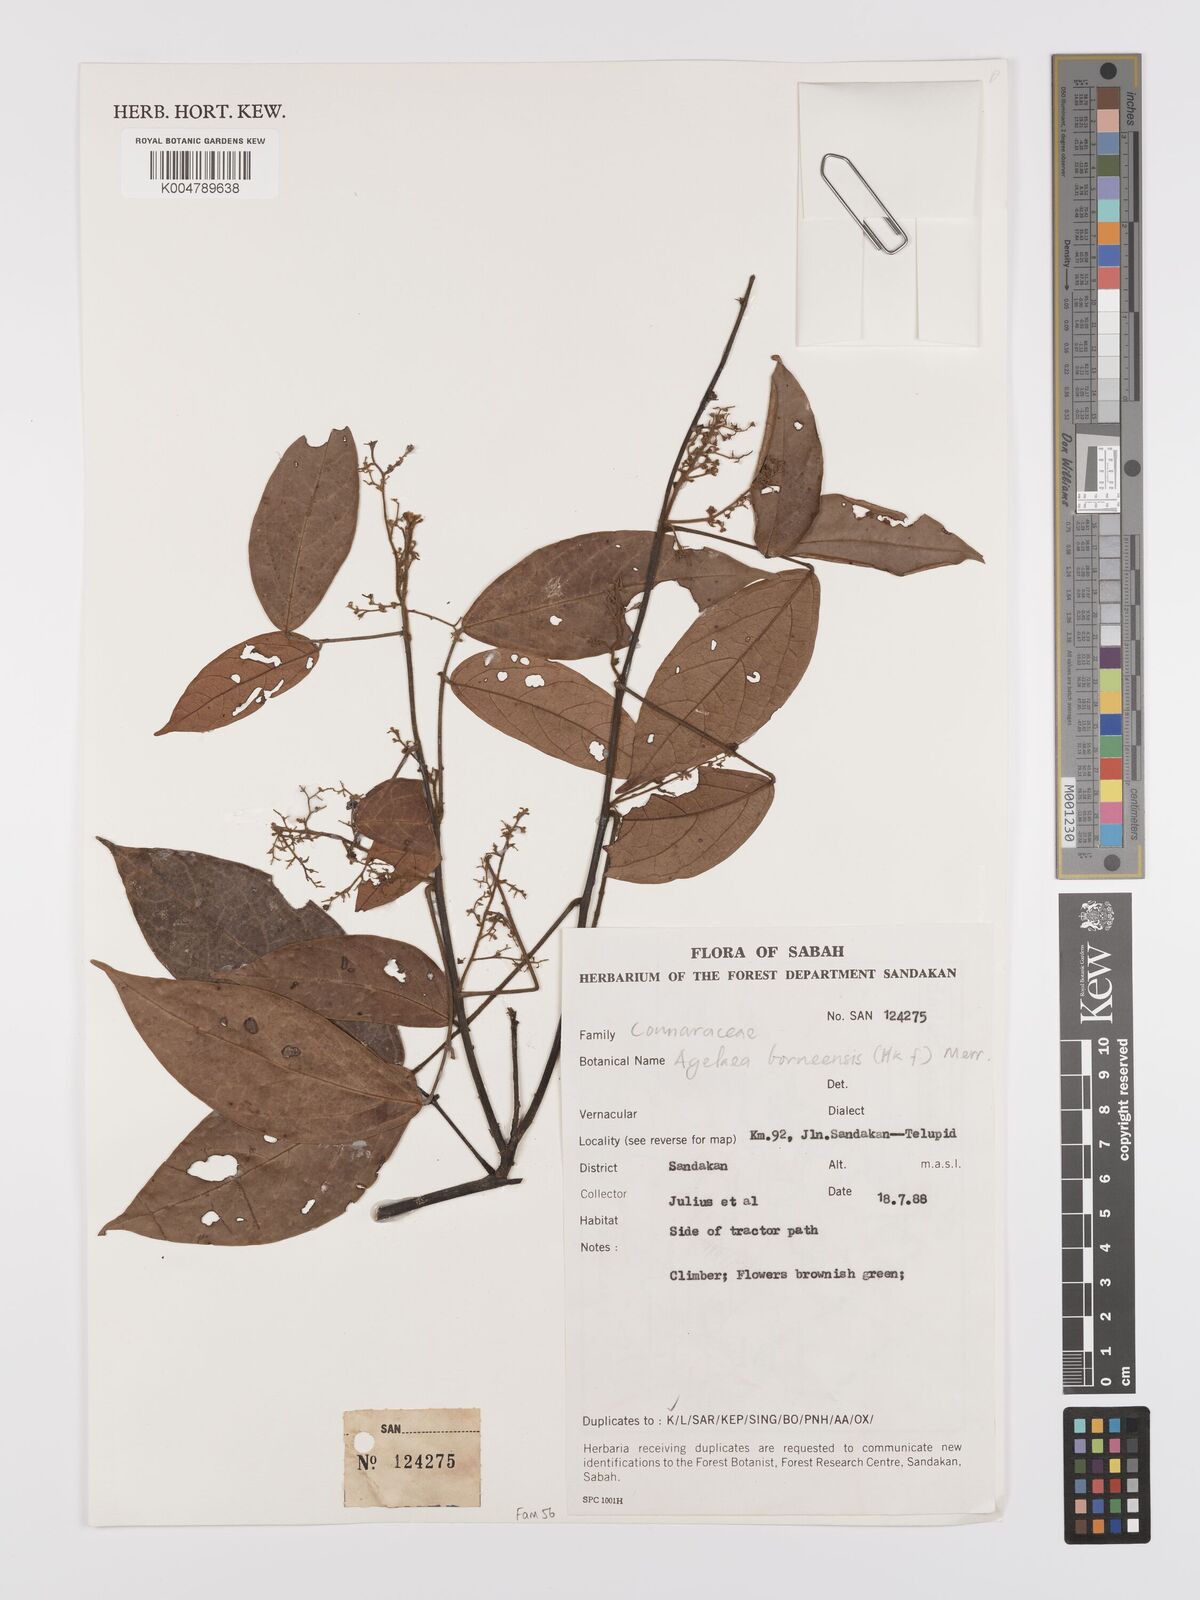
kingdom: Plantae
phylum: Tracheophyta
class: Magnoliopsida
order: Oxalidales
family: Connaraceae
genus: Agelaea
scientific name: Agelaea borneensis
